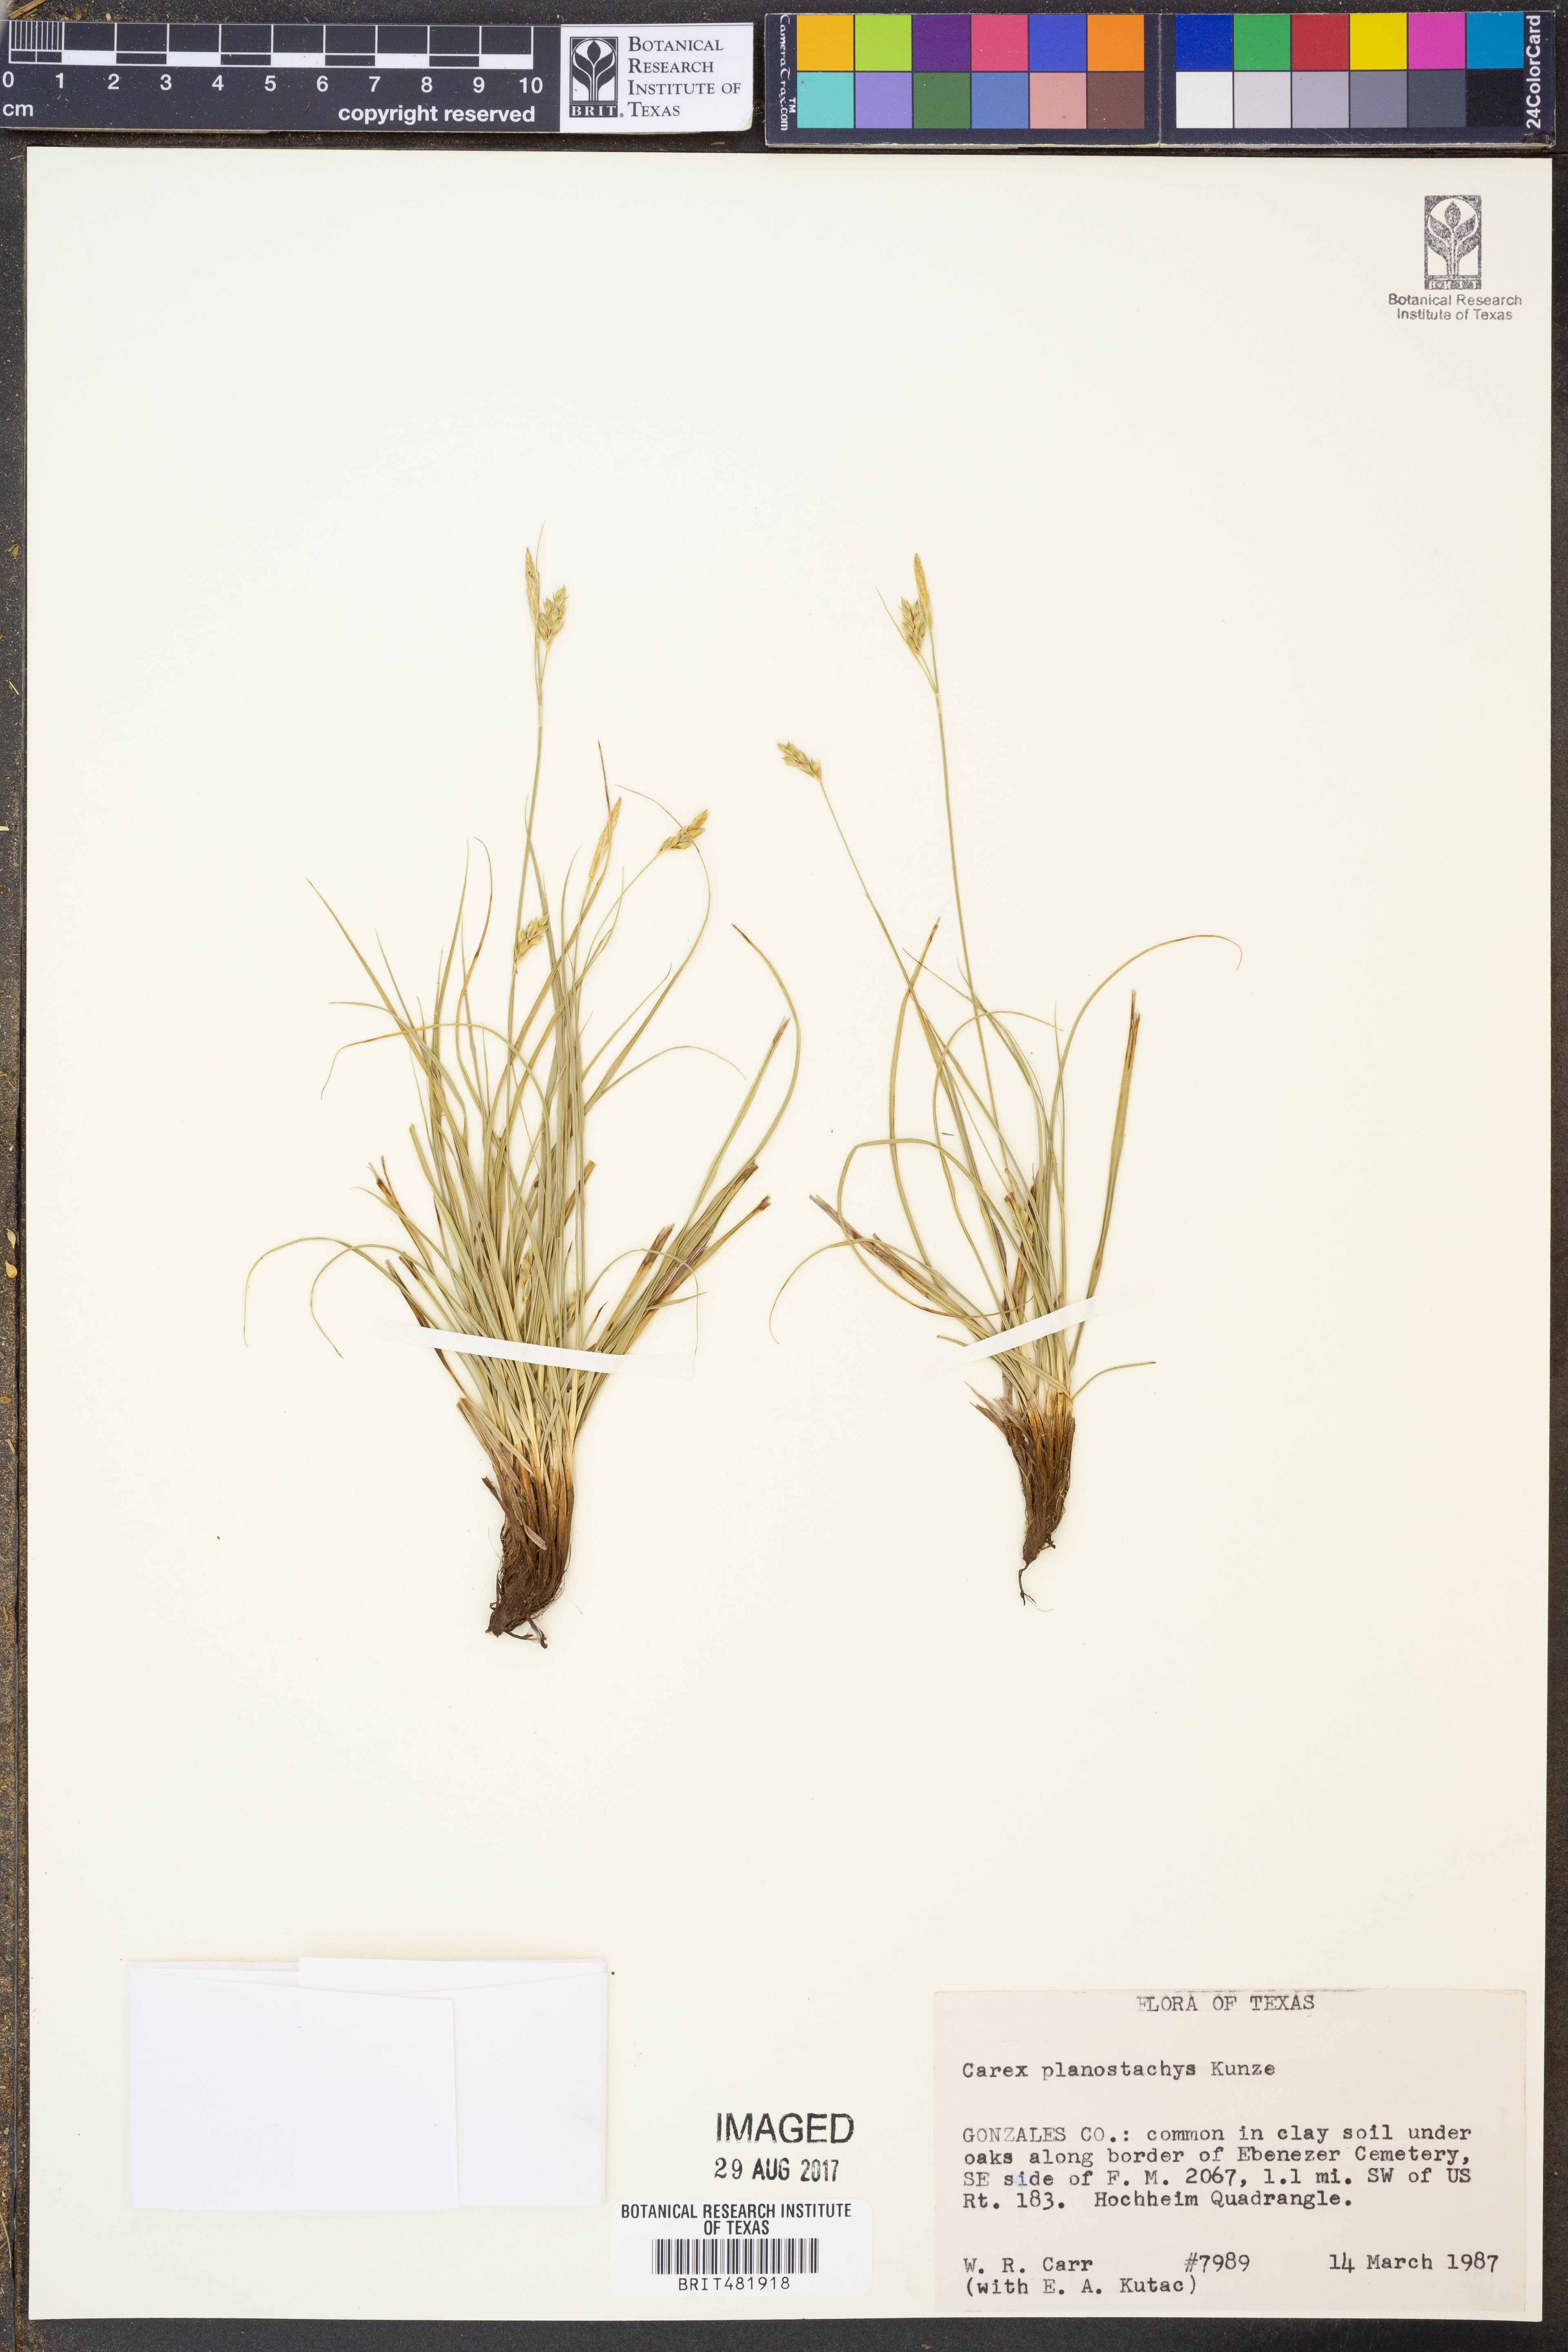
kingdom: Plantae
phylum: Tracheophyta
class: Liliopsida
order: Poales
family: Cyperaceae
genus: Carex
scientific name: Carex planostachys
